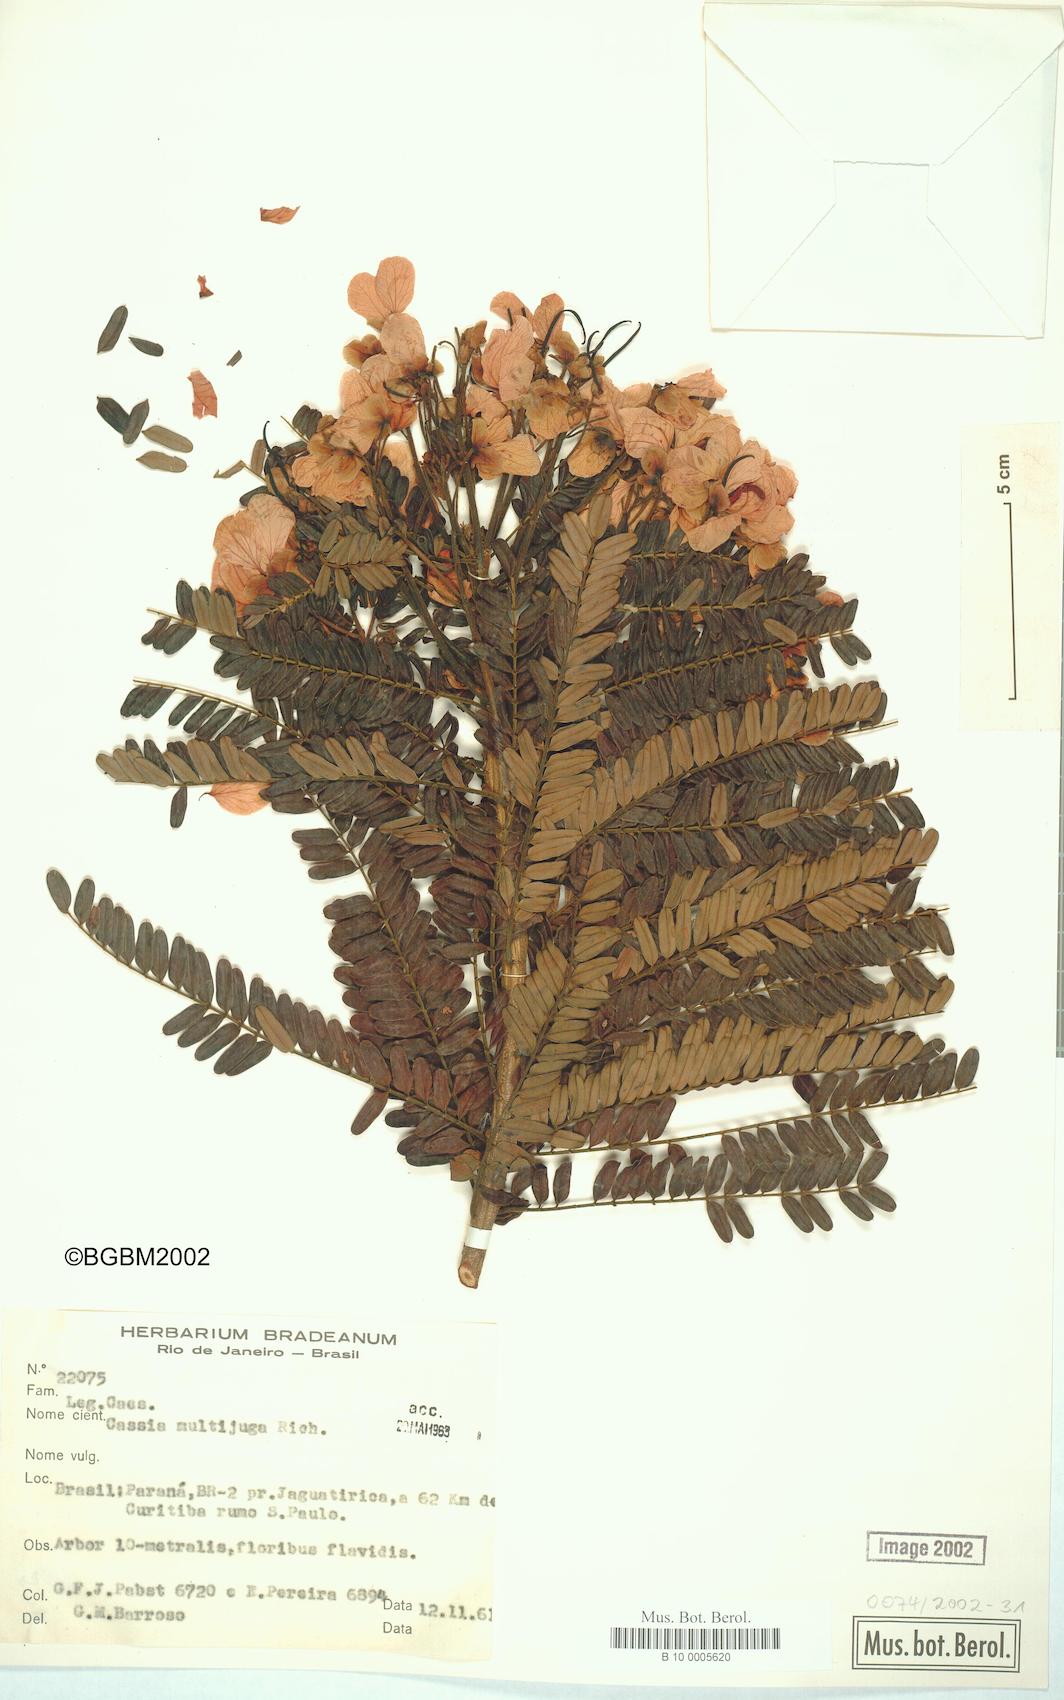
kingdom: Plantae
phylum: Tracheophyta
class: Magnoliopsida
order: Fabales
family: Fabaceae
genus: Senna
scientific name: Senna multijuga
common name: False sicklepod
